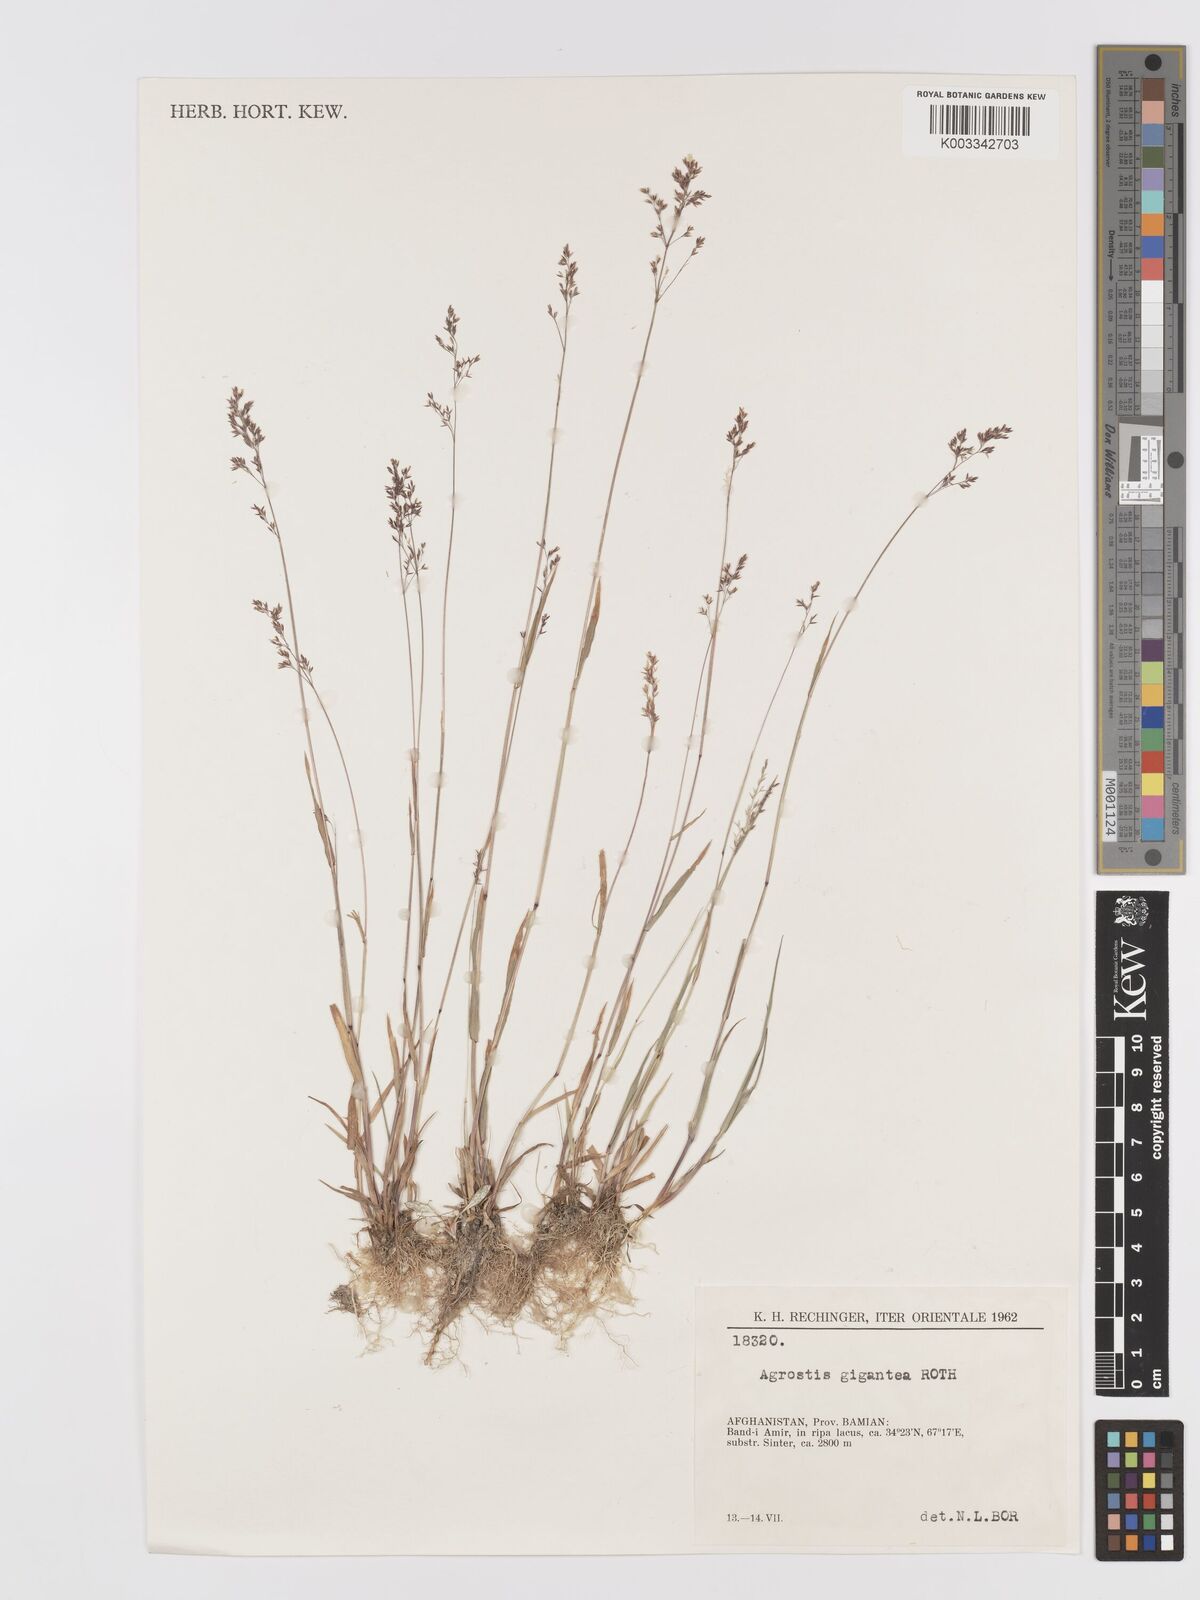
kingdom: Plantae
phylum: Tracheophyta
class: Liliopsida
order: Poales
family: Poaceae
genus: Agrostis
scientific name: Agrostis gigantea
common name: Black bent
